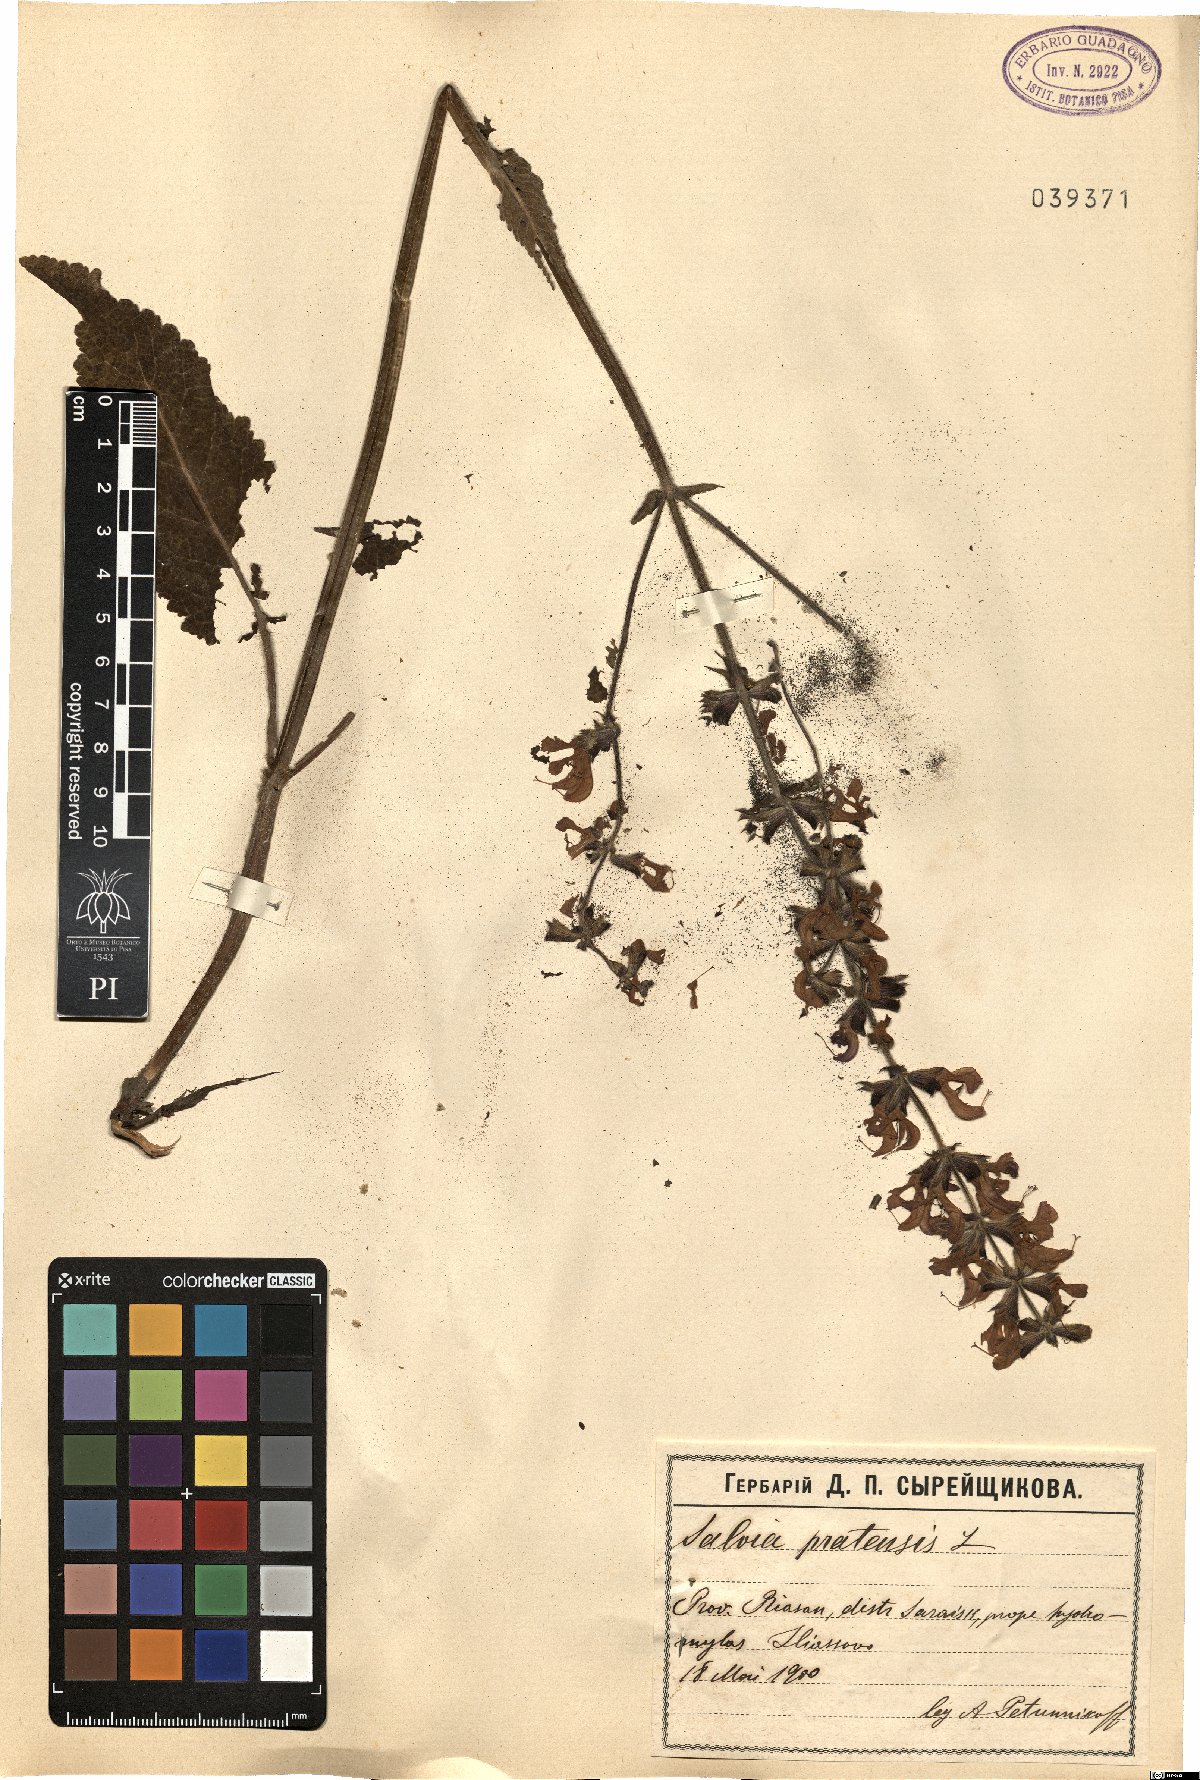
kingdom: Plantae
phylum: Tracheophyta
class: Magnoliopsida
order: Lamiales
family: Lamiaceae
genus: Salvia
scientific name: Salvia pratensis
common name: Meadow sage
